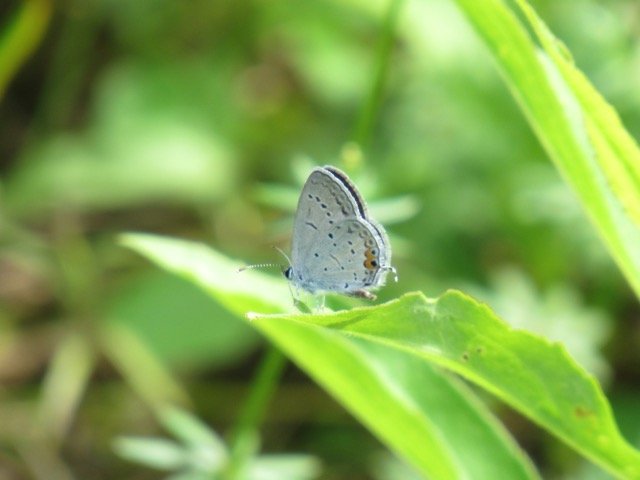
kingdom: Animalia
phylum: Arthropoda
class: Insecta
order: Lepidoptera
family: Lycaenidae
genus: Elkalyce
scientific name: Elkalyce comyntas
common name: Eastern Tailed-Blue
